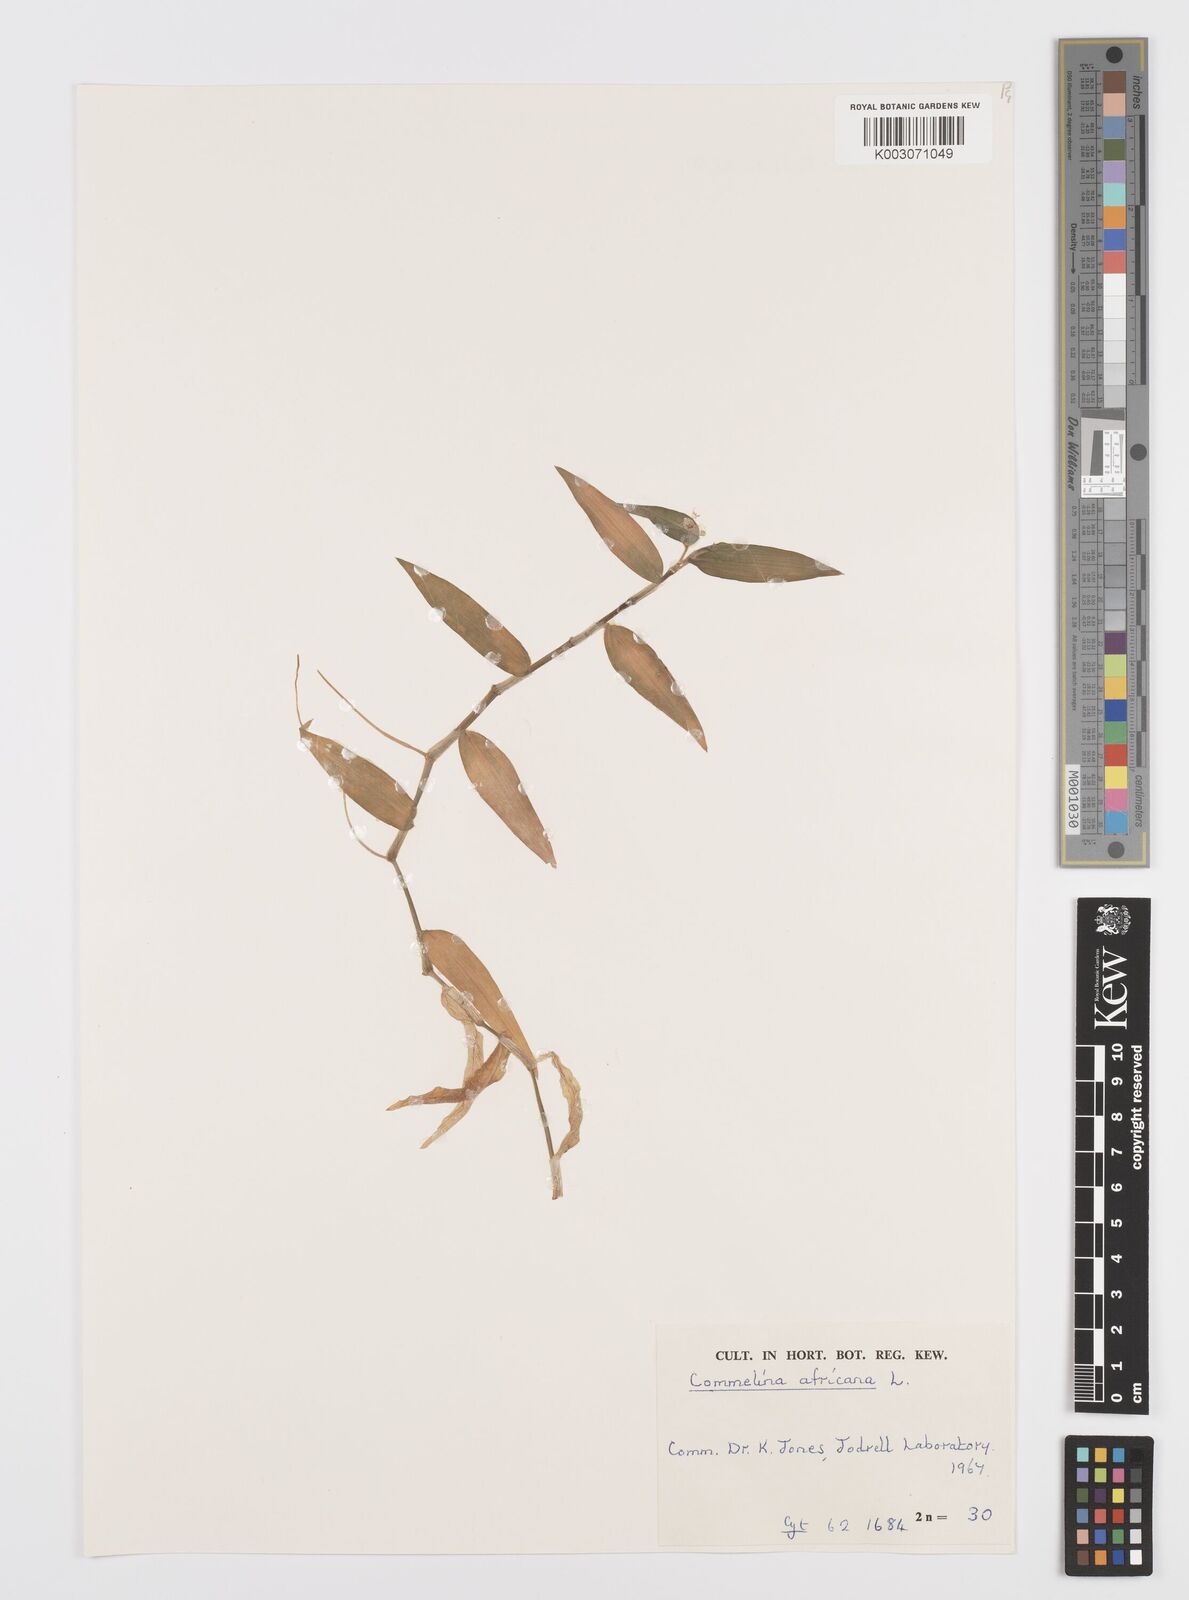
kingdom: Plantae
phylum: Tracheophyta
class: Liliopsida
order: Commelinales
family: Commelinaceae
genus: Commelina
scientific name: Commelina africana
